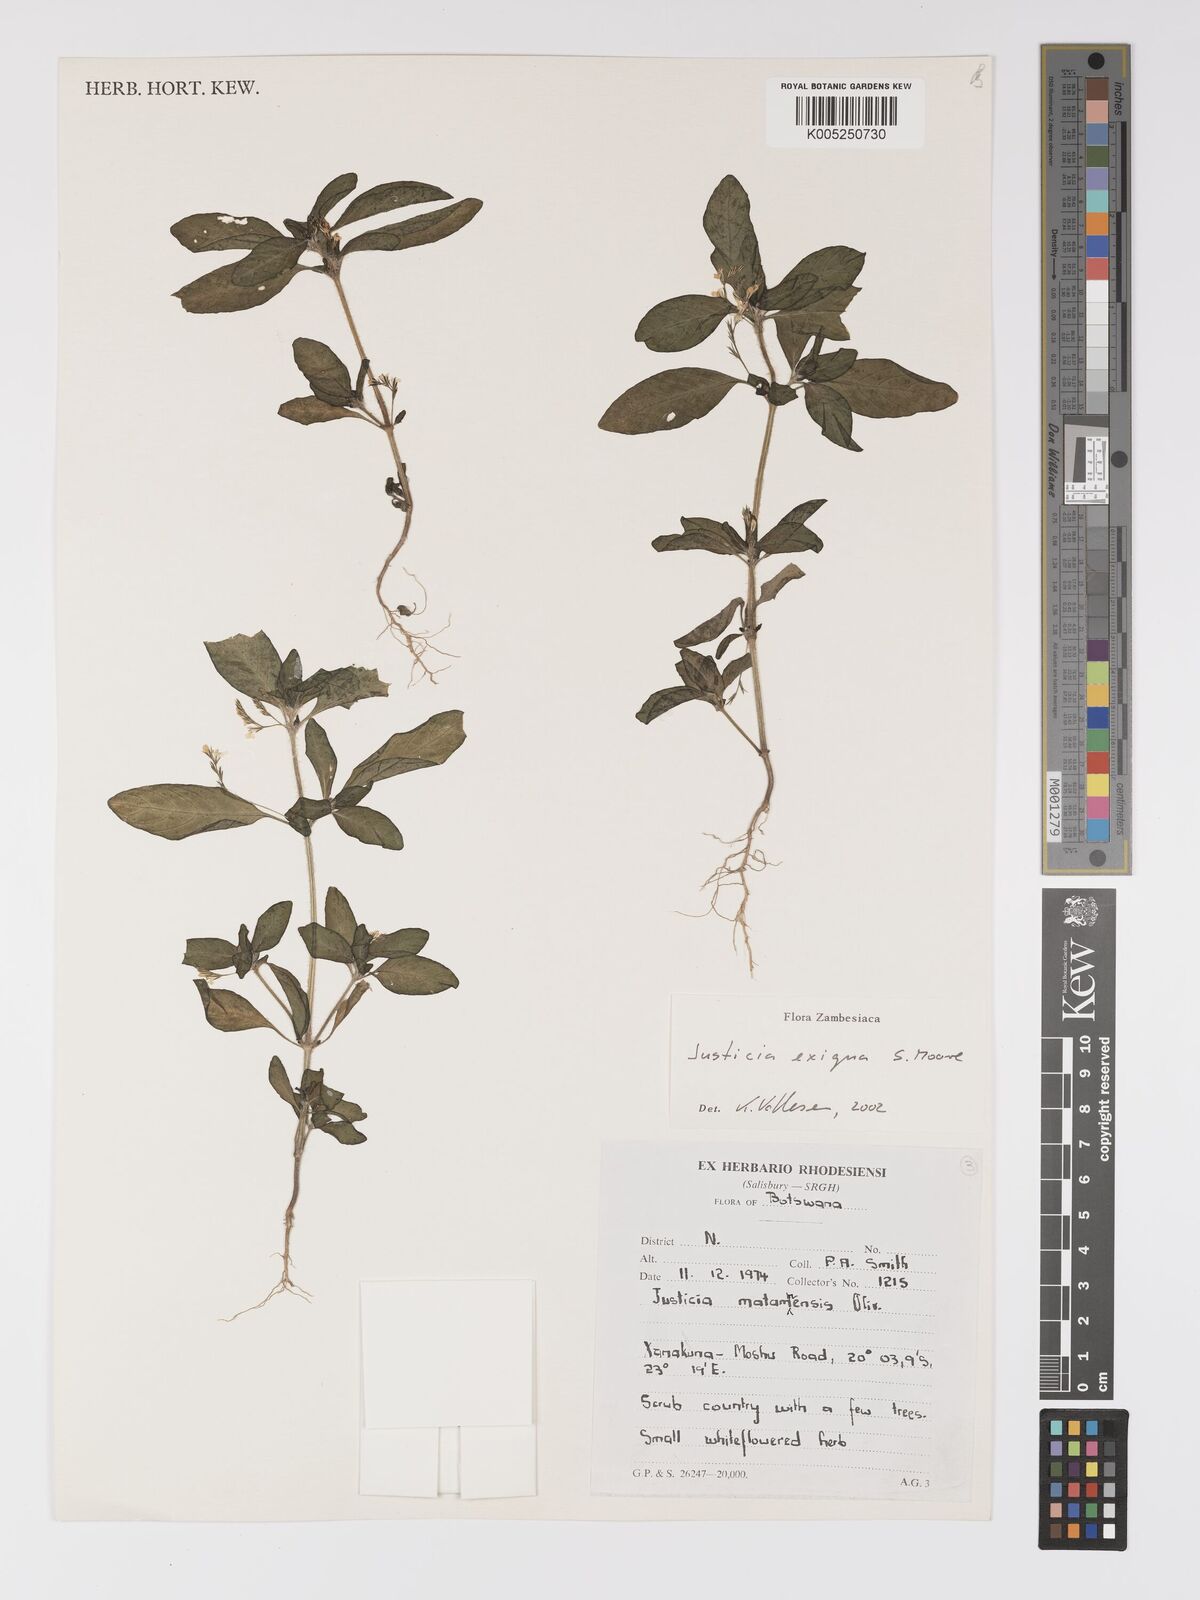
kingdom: Plantae
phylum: Tracheophyta
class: Magnoliopsida
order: Lamiales
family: Acanthaceae
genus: Justicia
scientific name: Justicia exigua
